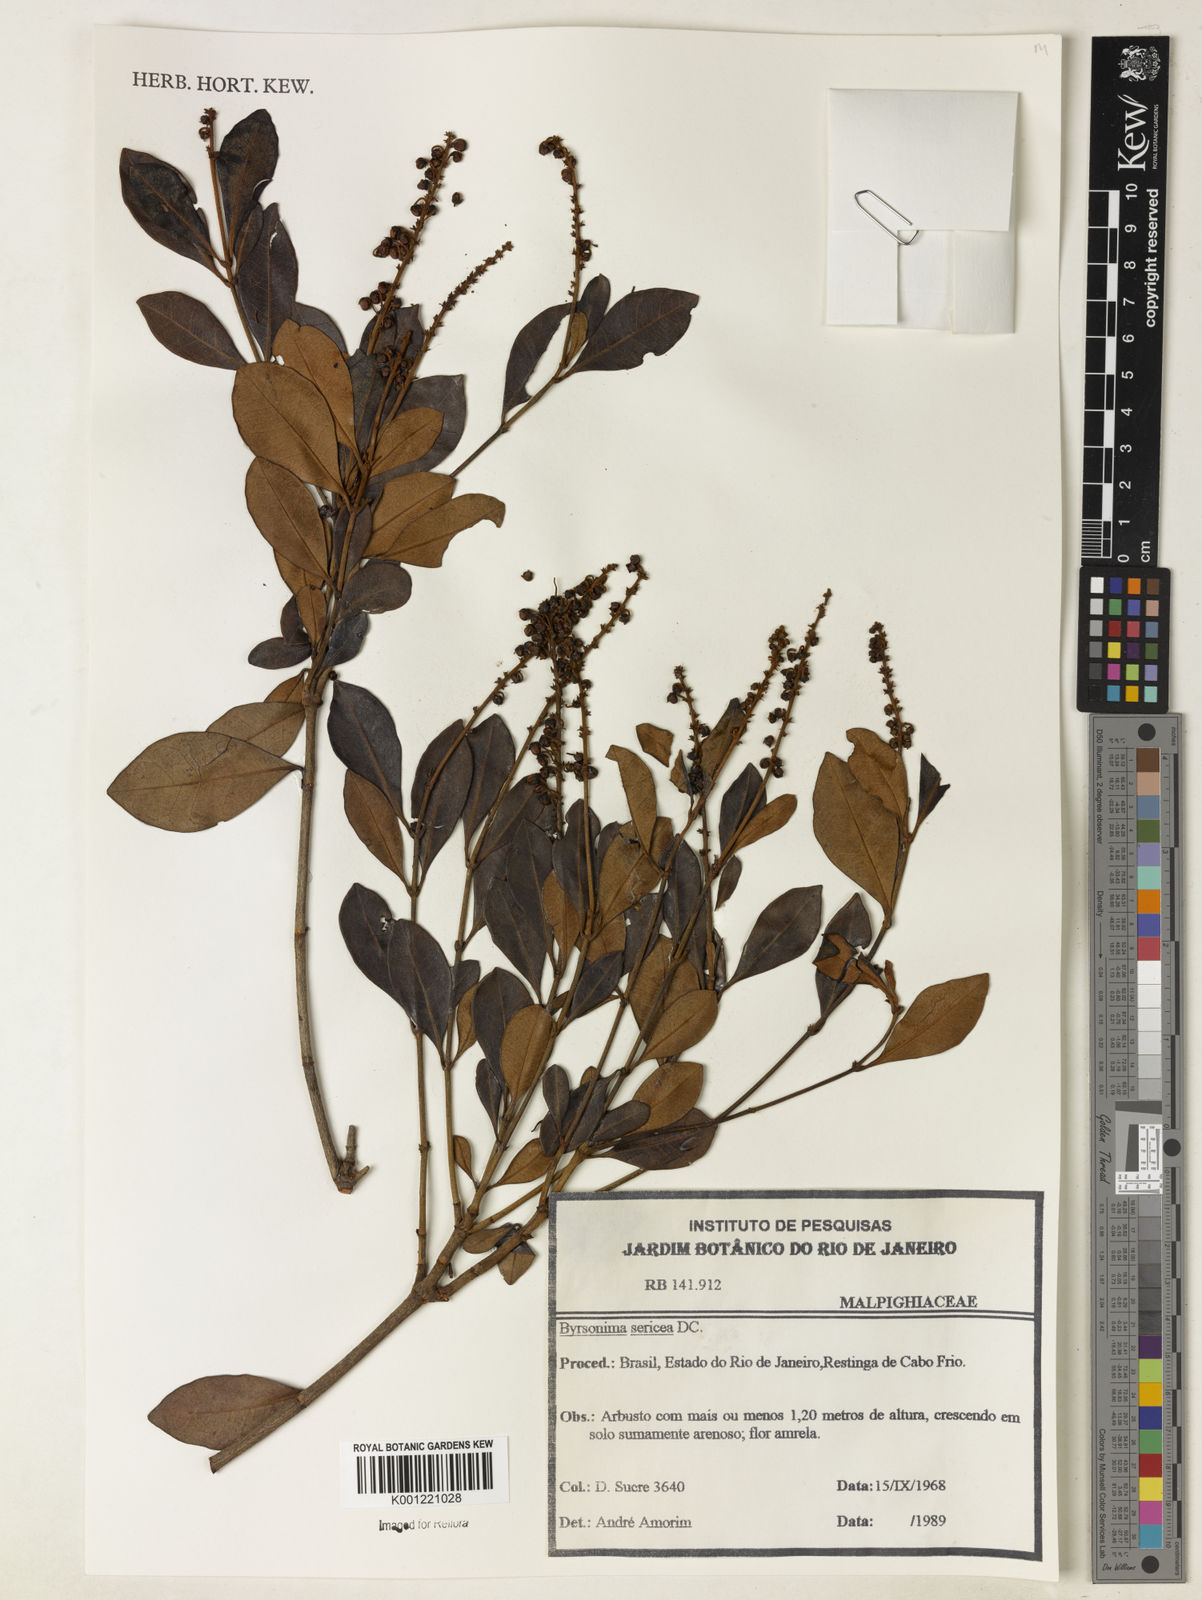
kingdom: Plantae
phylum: Tracheophyta
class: Magnoliopsida
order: Malpighiales
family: Malpighiaceae
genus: Byrsonima
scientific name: Byrsonima sericea
